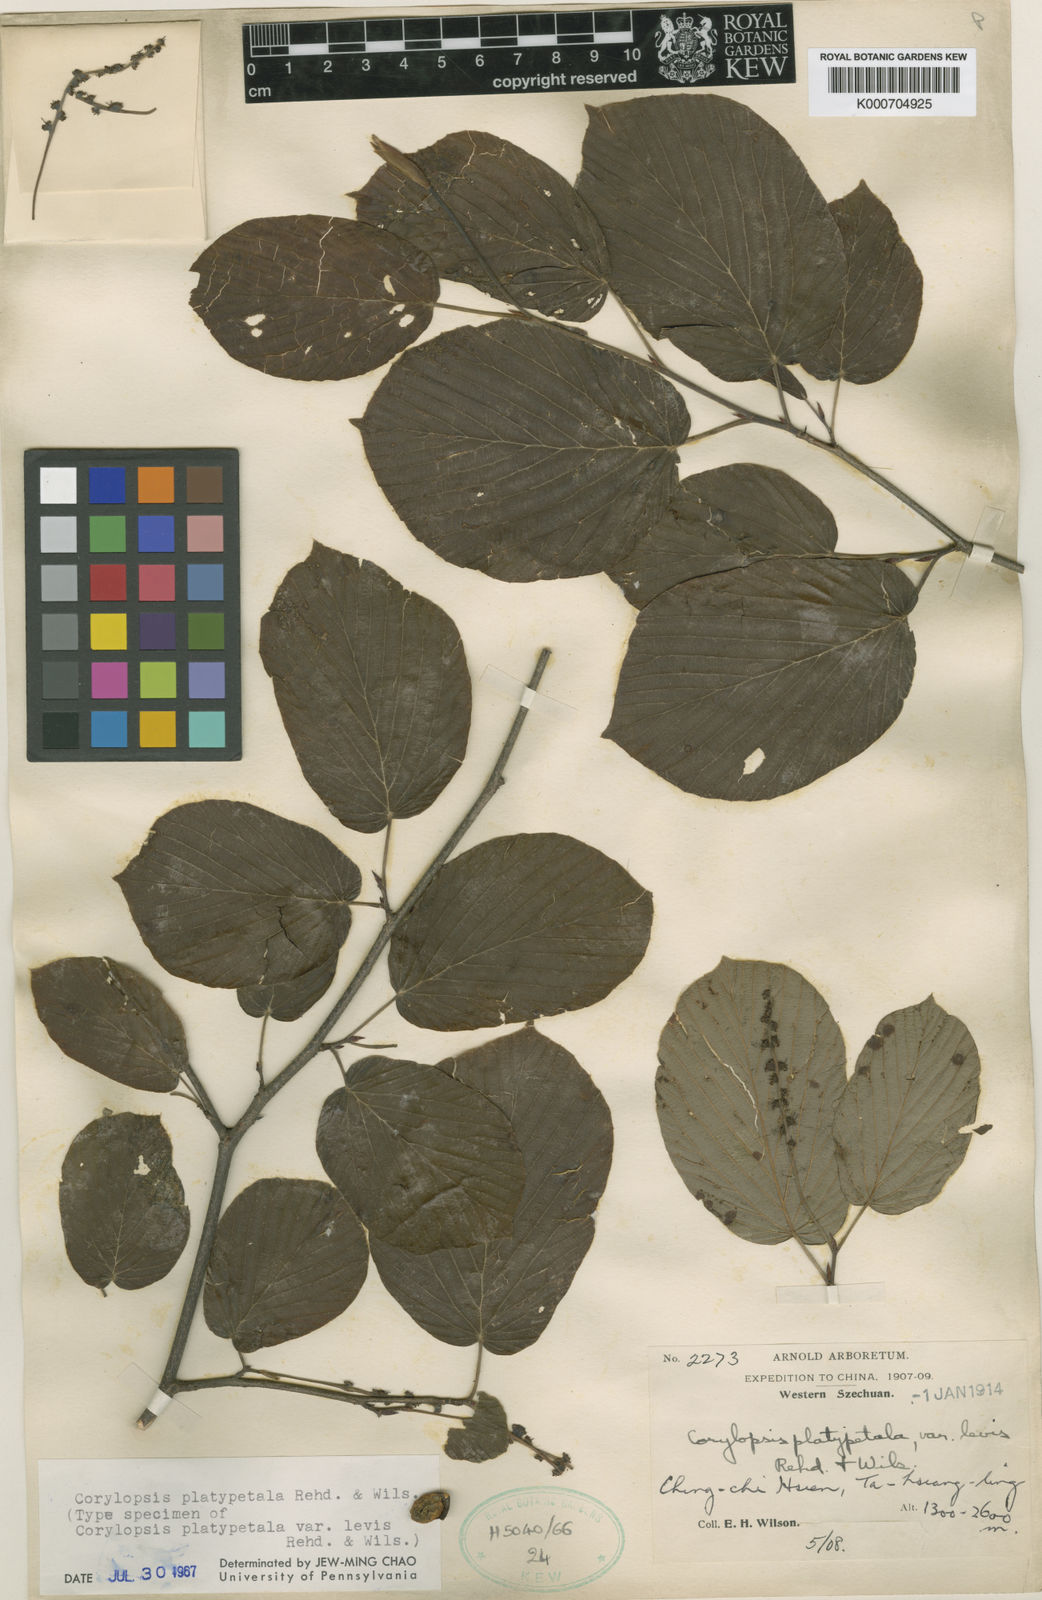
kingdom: Plantae
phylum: Tracheophyta
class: Magnoliopsida
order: Saxifragales
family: Hamamelidaceae
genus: Corylopsis
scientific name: Corylopsis sinensis
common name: Winter hazel
